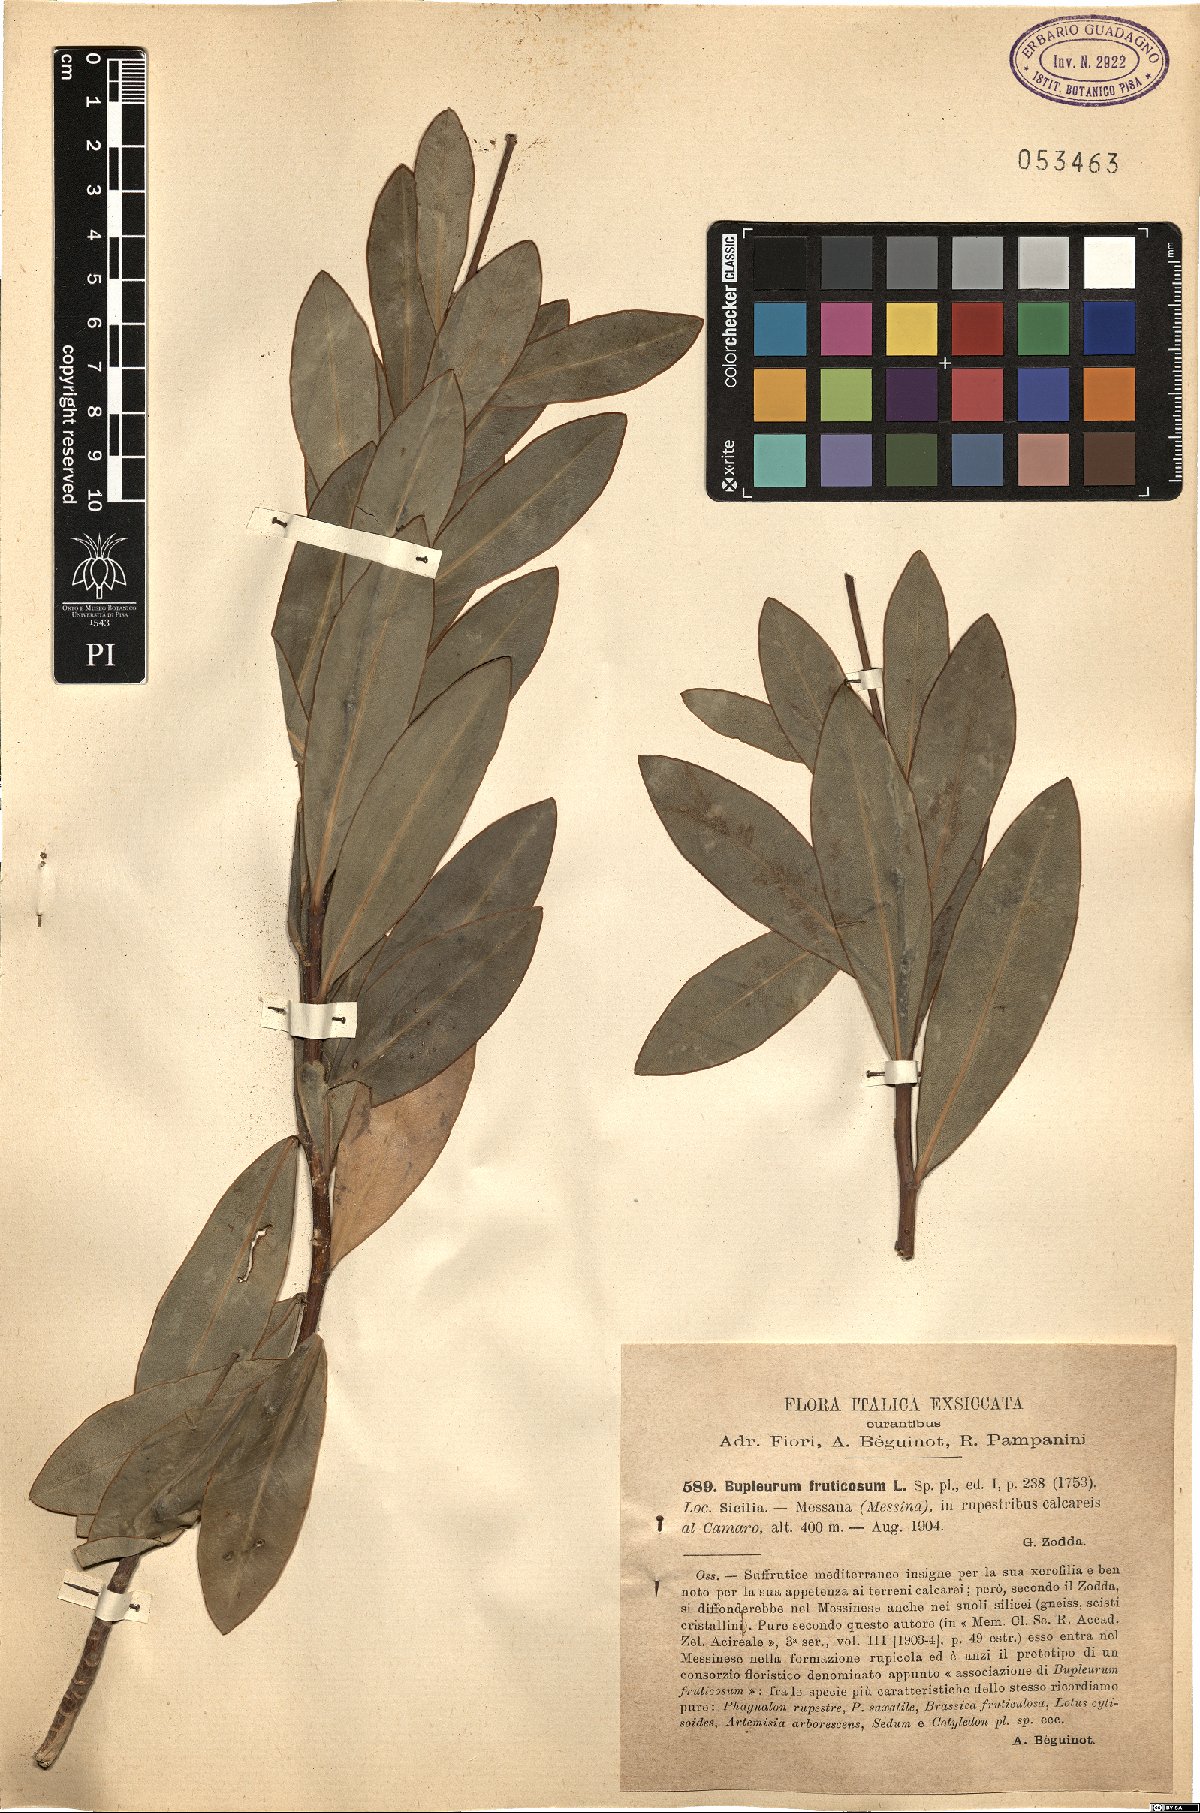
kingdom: Plantae
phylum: Tracheophyta
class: Magnoliopsida
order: Apiales
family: Apiaceae
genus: Bupleurum
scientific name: Bupleurum fruticosum
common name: Shrubby hare's-ear
